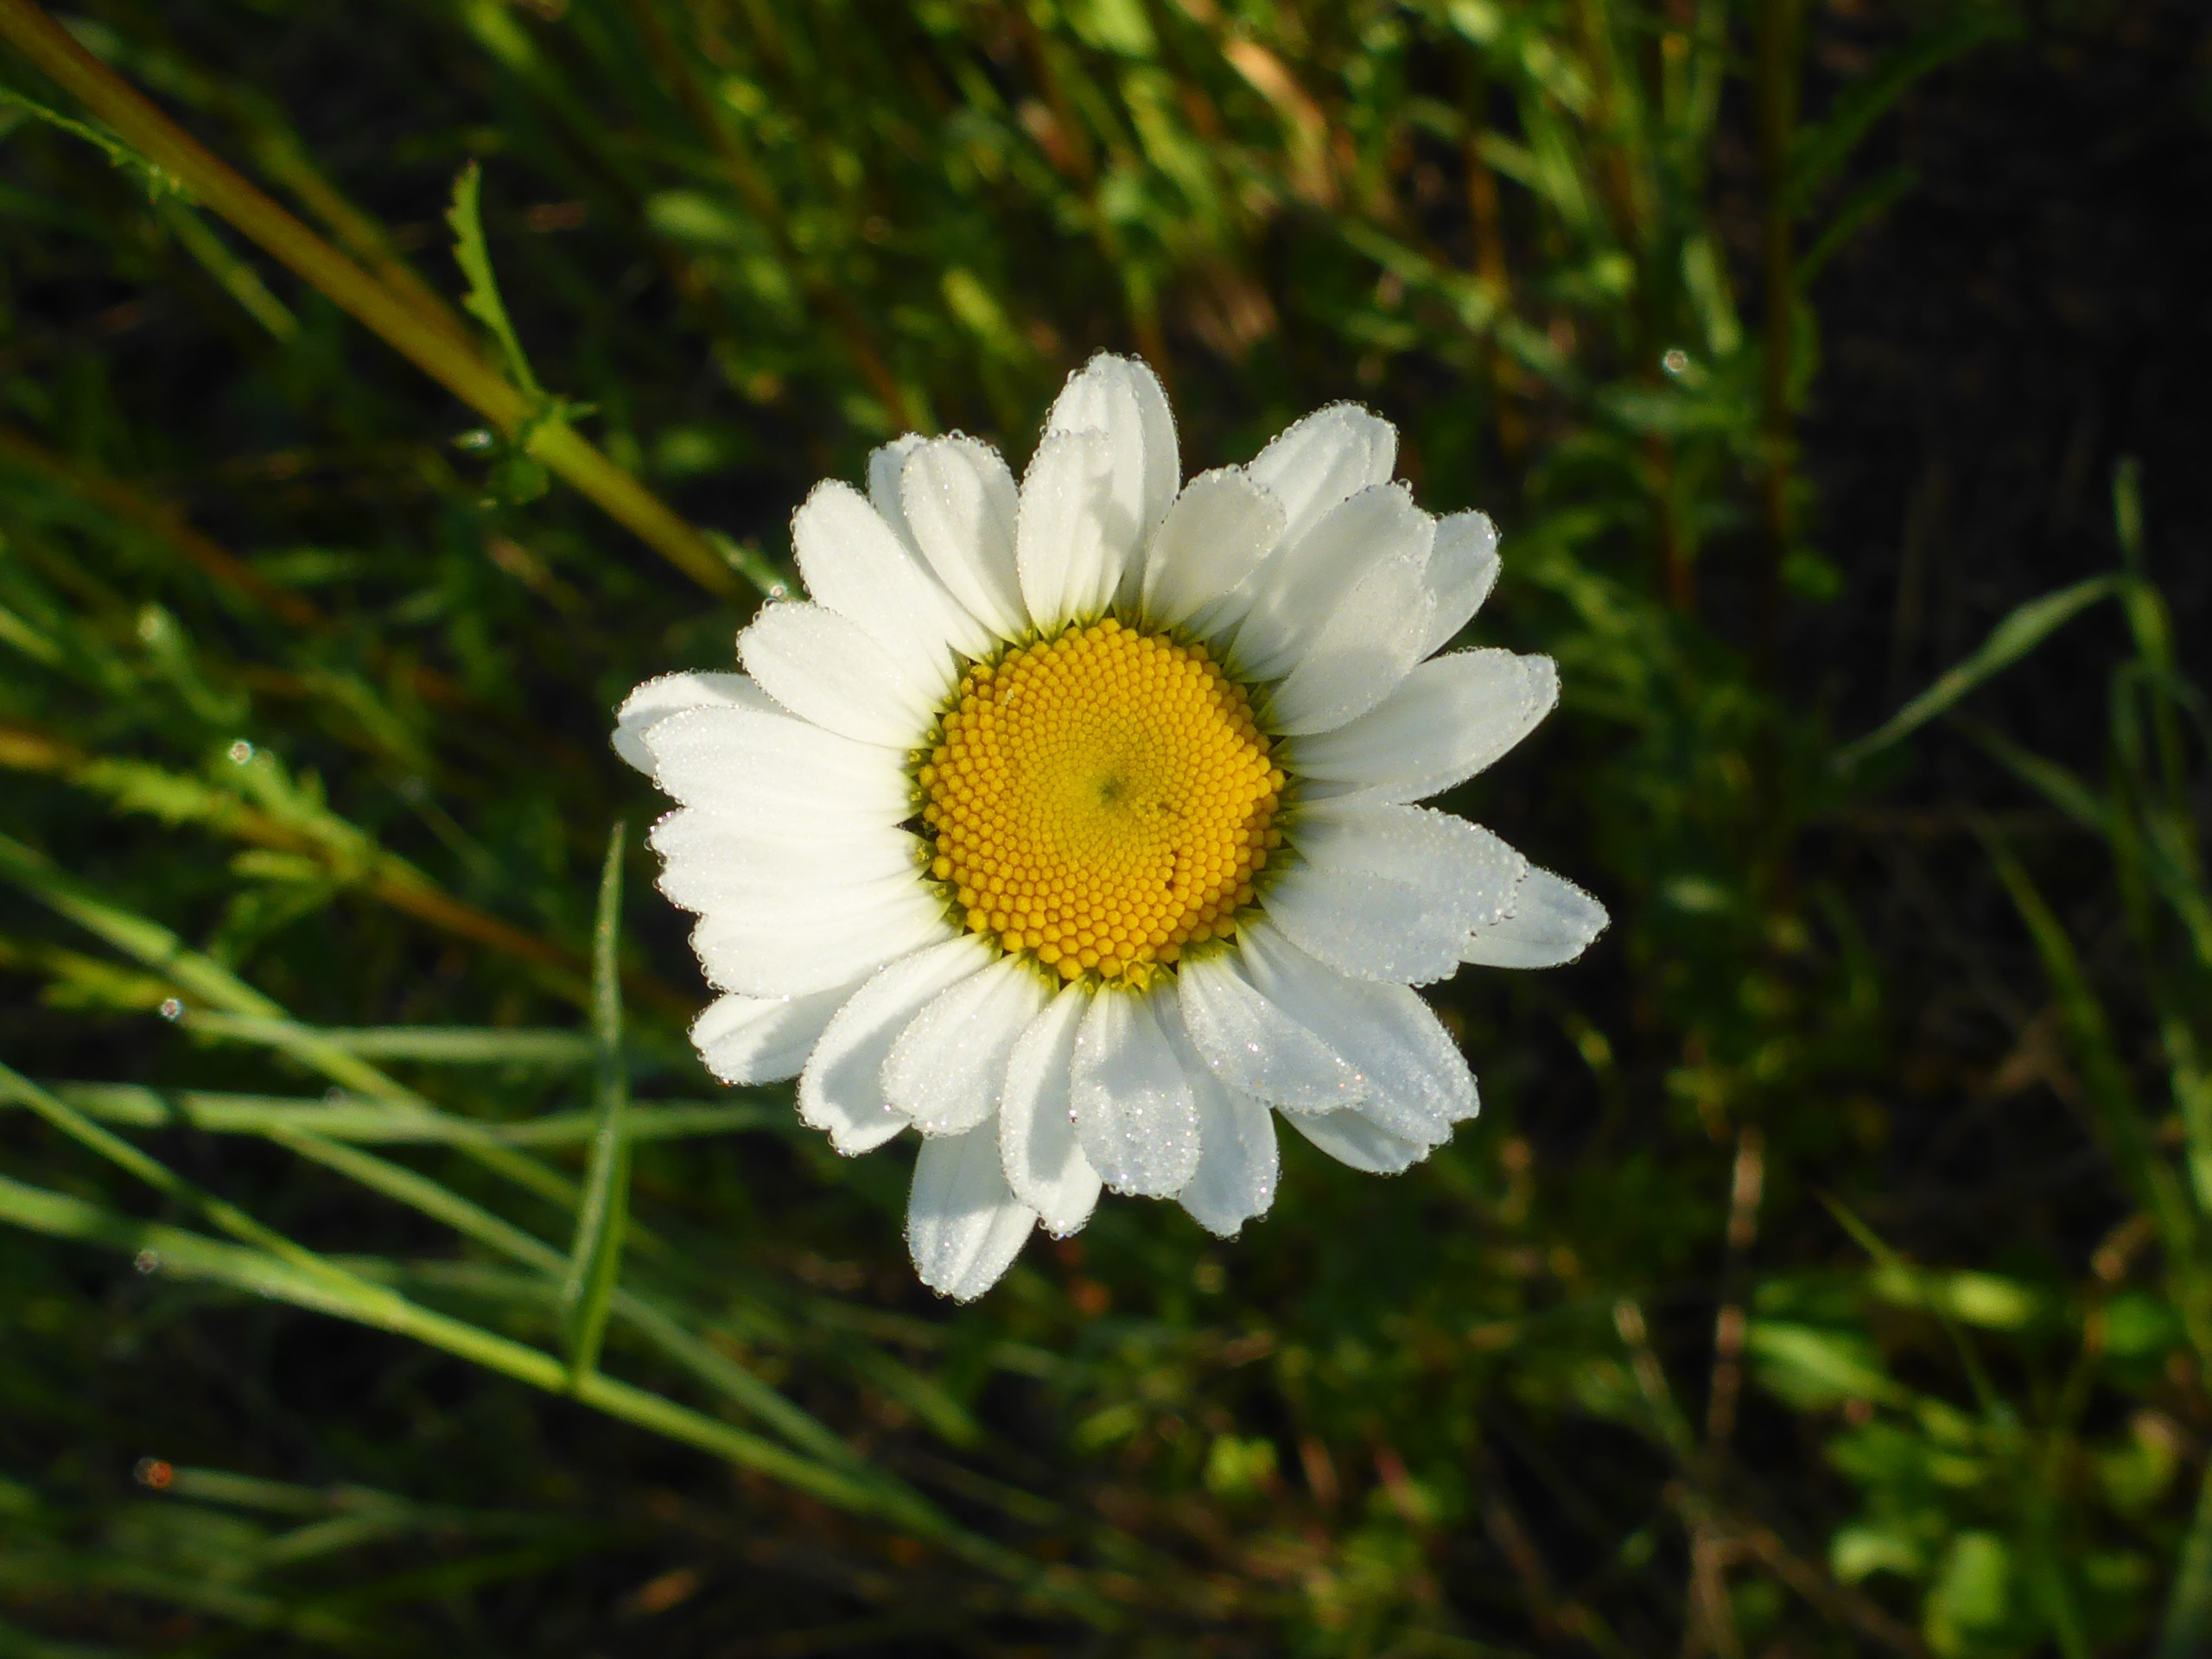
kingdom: Plantae
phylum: Tracheophyta
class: Magnoliopsida
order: Asterales
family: Asteraceae
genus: Leucanthemum
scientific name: Leucanthemum vulgare
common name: Hvid okseøje
